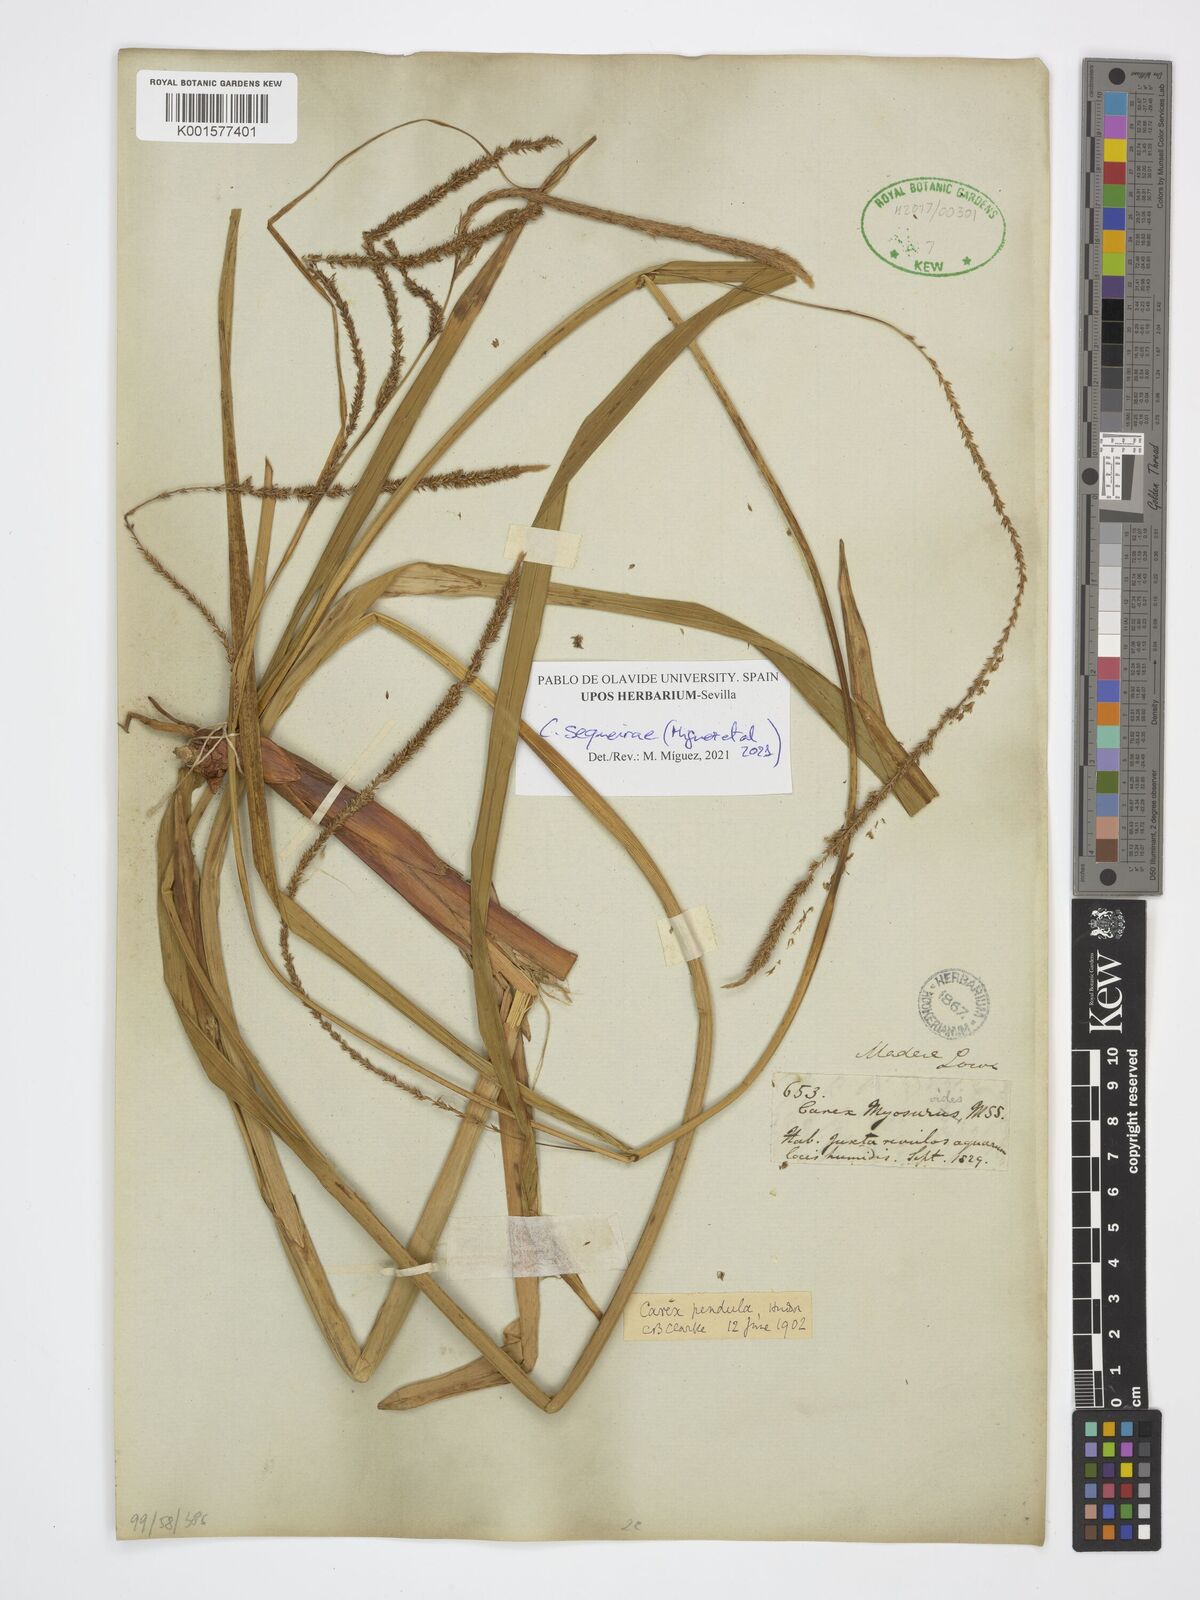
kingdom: Plantae
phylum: Tracheophyta
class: Liliopsida
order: Poales
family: Cyperaceae
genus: Carex
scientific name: Carex pendula
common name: Pendulous sedge
